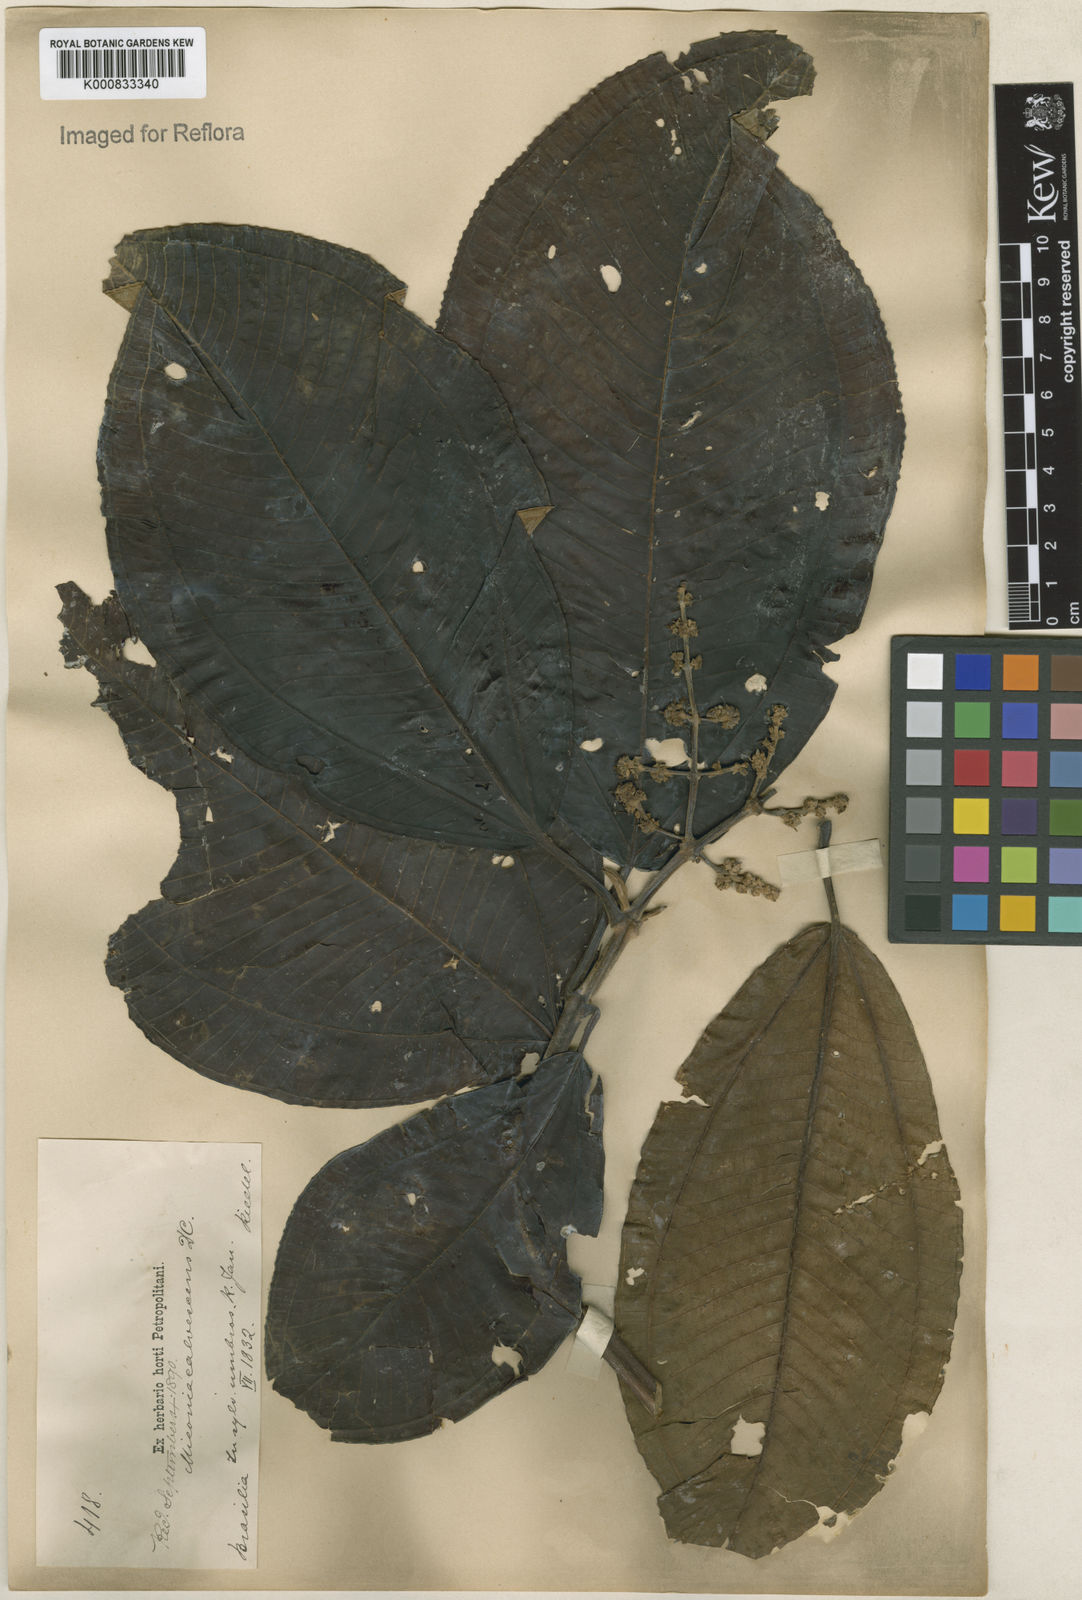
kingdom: Plantae
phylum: Tracheophyta
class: Magnoliopsida
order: Myrtales
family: Melastomataceae
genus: Miconia
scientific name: Miconia calvescens
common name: Purple plague
